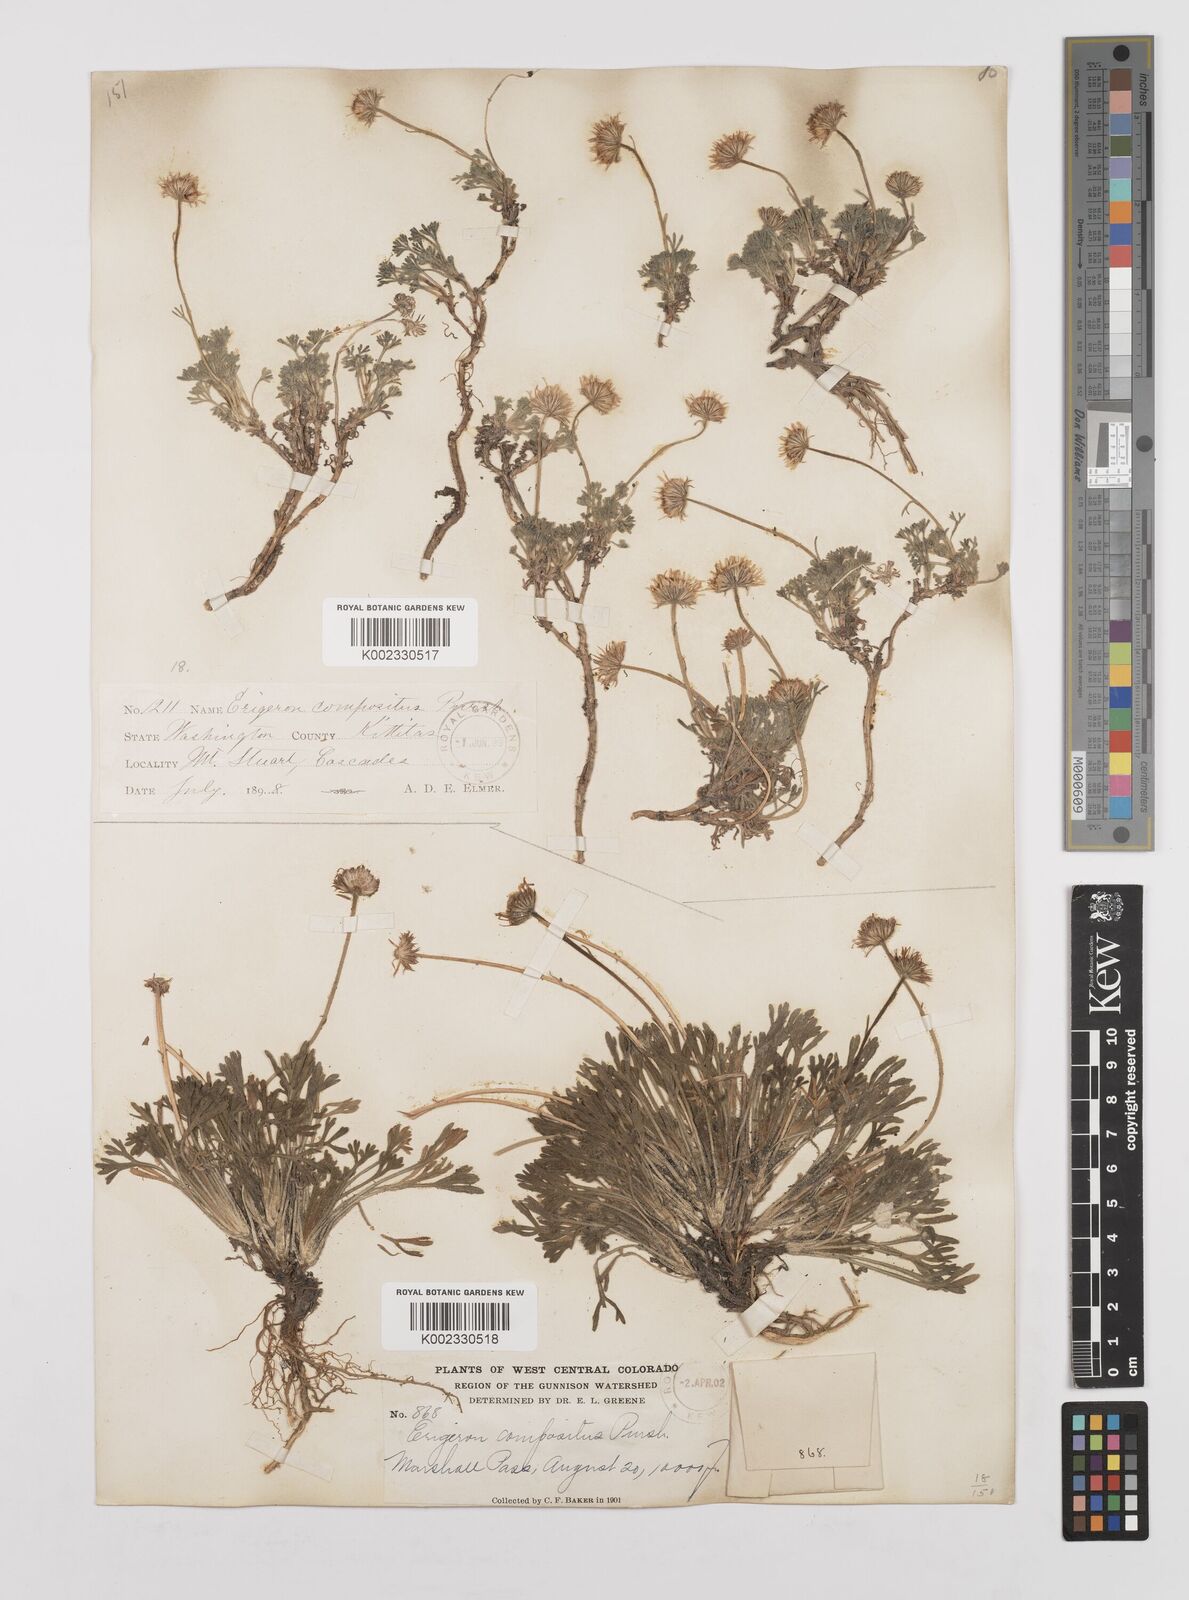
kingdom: Plantae
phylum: Tracheophyta
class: Magnoliopsida
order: Asterales
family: Asteraceae
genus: Erigeron
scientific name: Erigeron compositus
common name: Dwarf mountain fleabane
